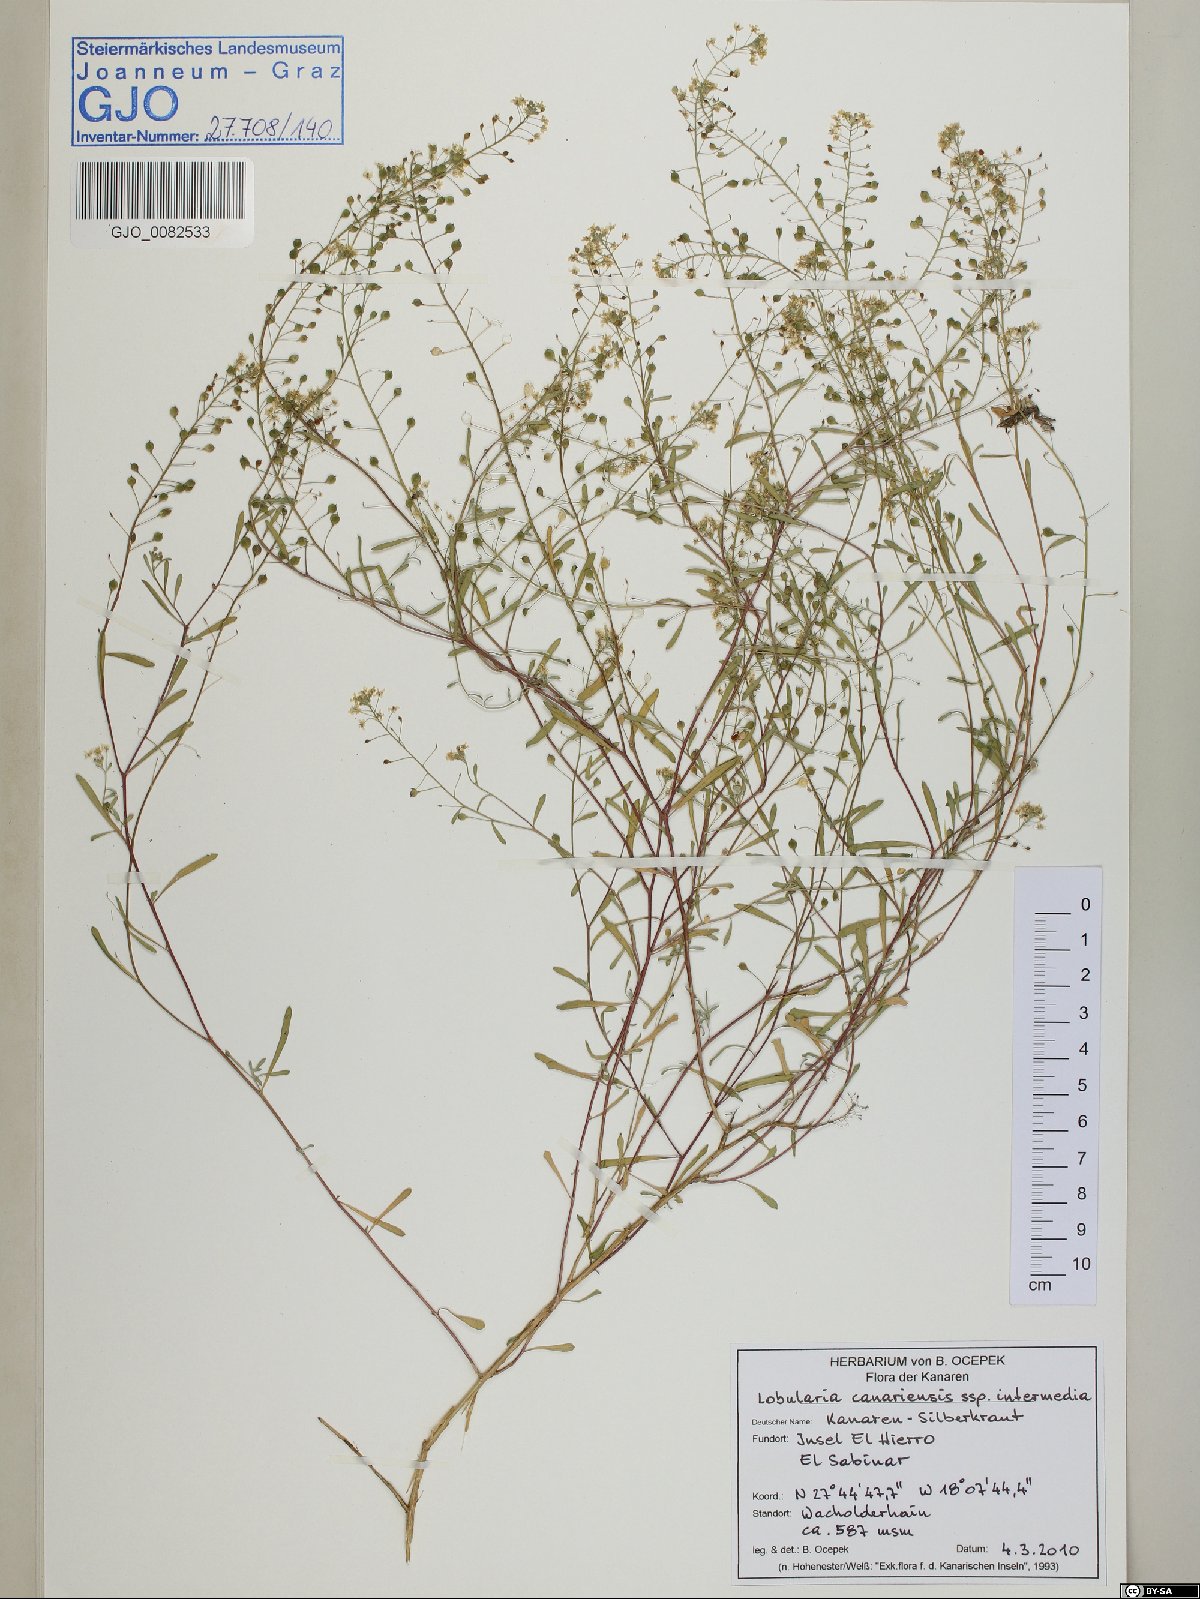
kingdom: Plantae
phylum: Tracheophyta
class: Magnoliopsida
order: Brassicales
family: Brassicaceae
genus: Lobularia
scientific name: Lobularia canariensis
